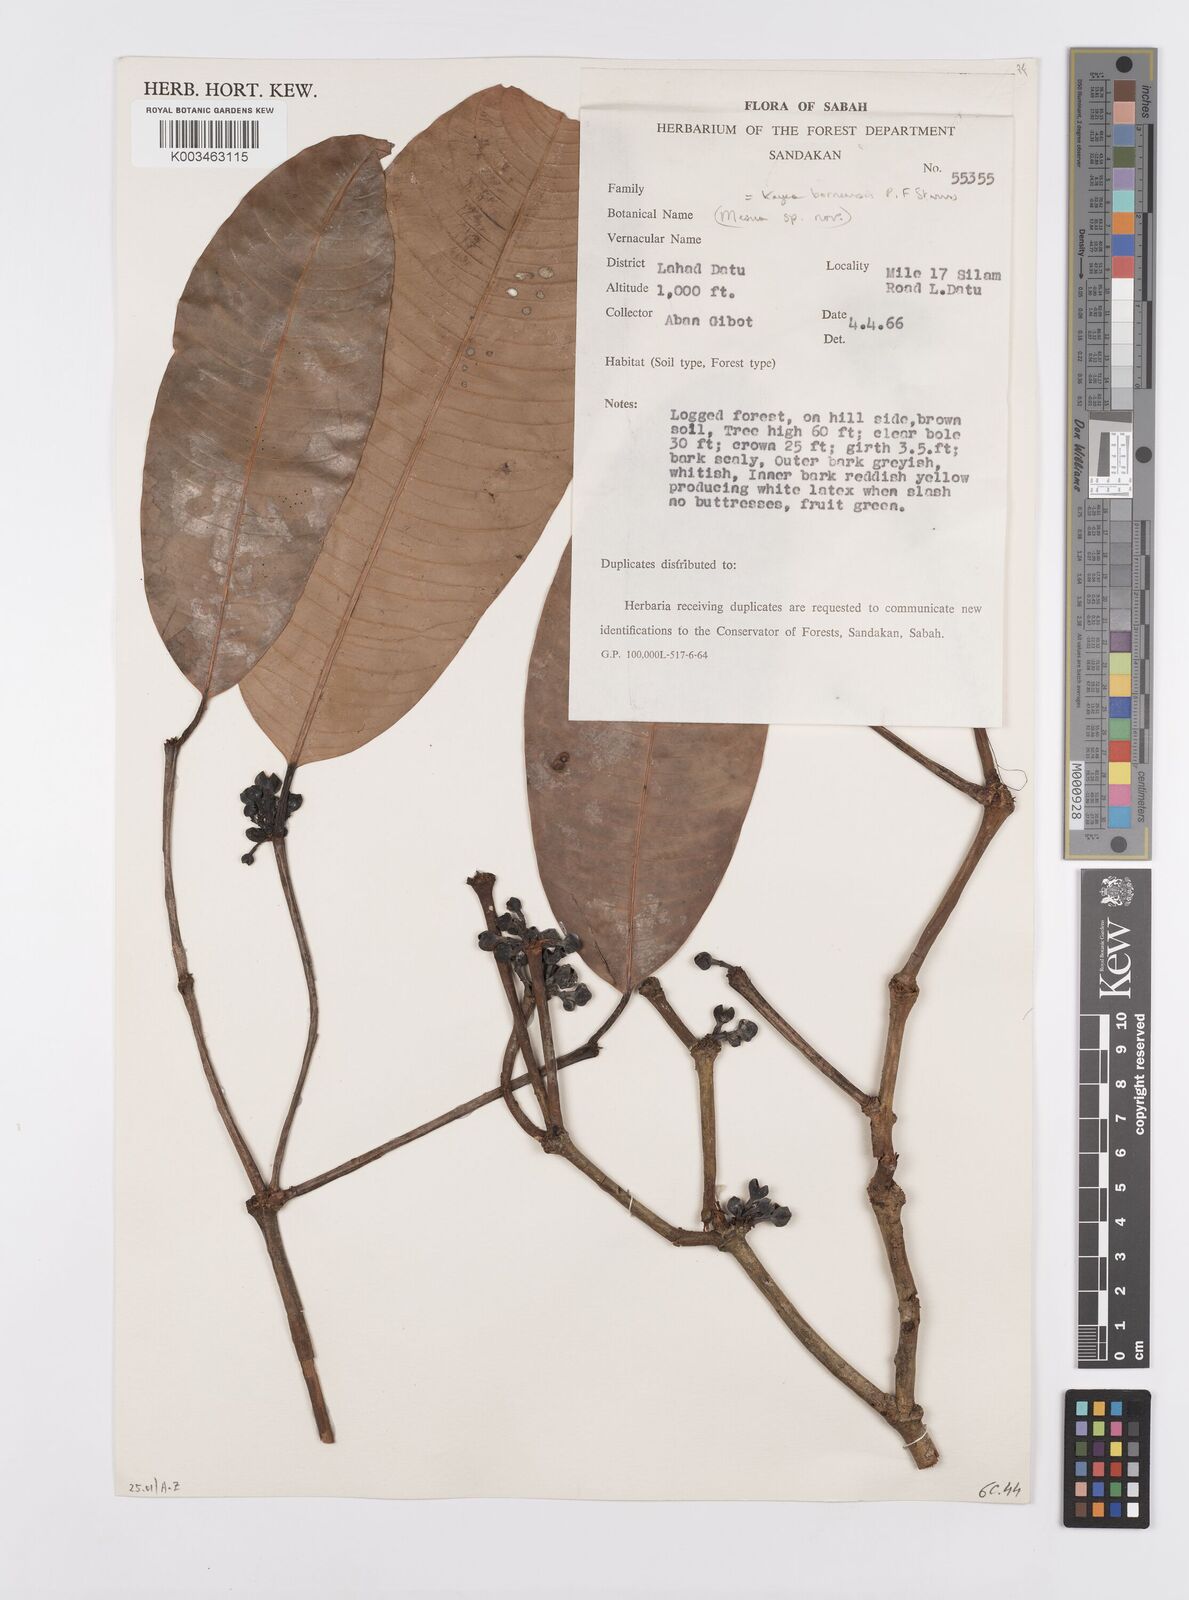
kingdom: Plantae
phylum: Tracheophyta
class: Magnoliopsida
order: Malpighiales
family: Calophyllaceae
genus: Kayea
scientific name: Kayea borneensis
